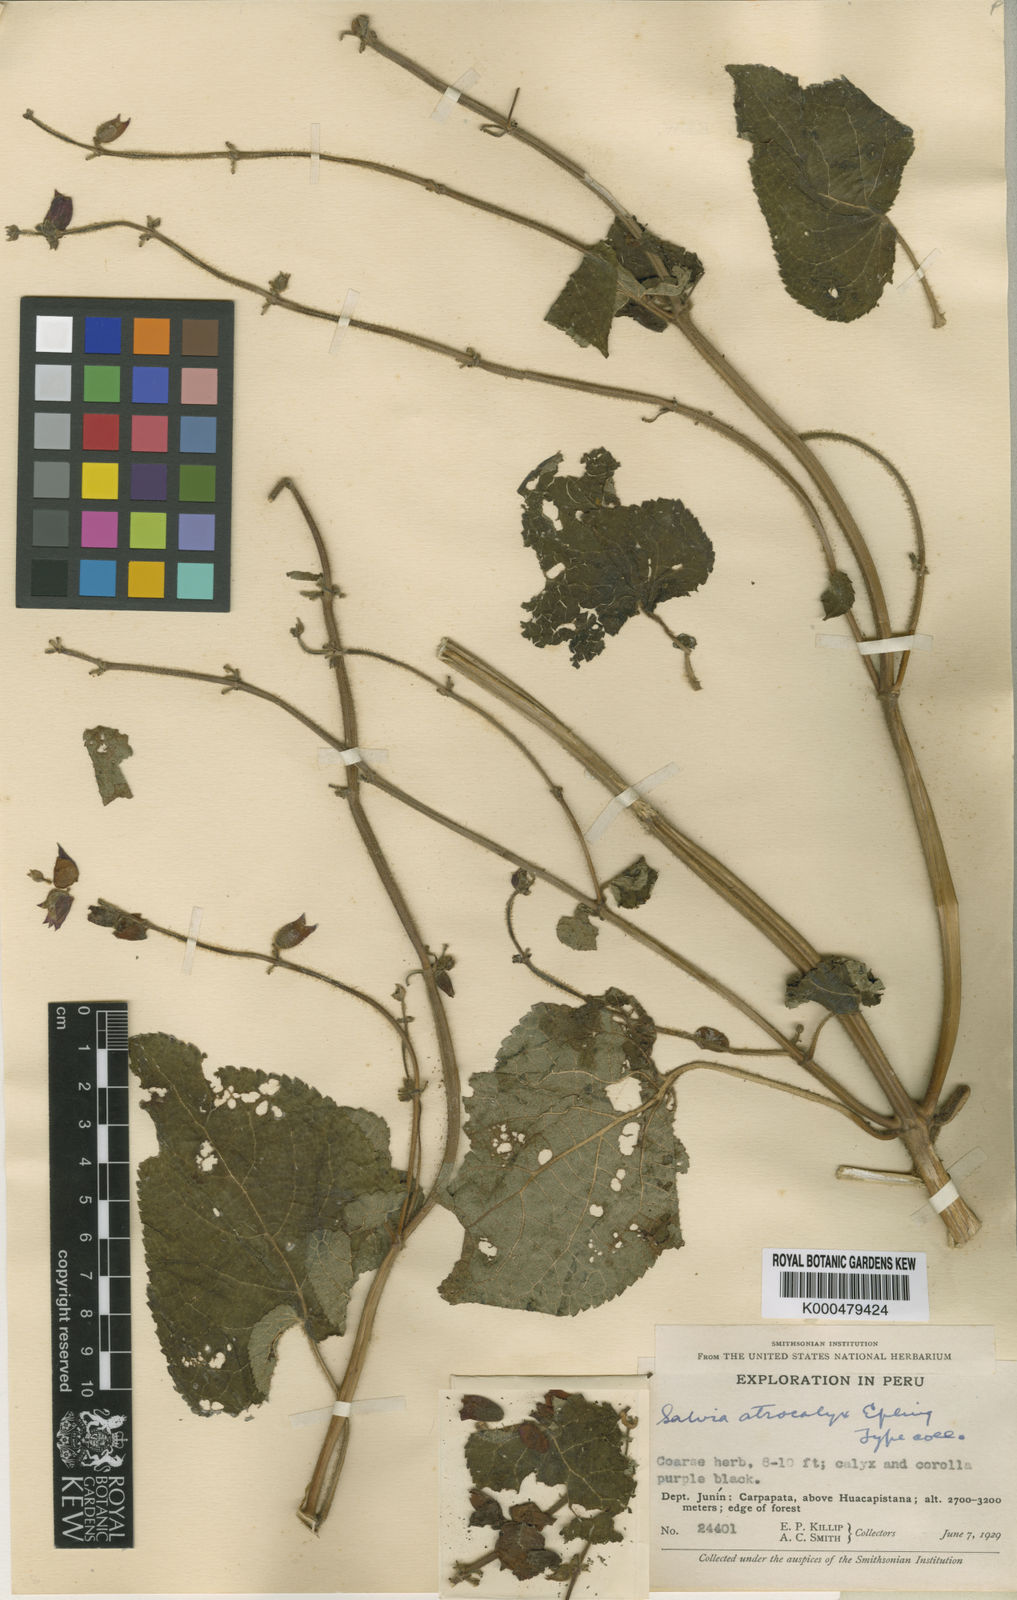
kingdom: Plantae
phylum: Tracheophyta
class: Magnoliopsida
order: Lamiales
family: Lamiaceae
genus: Salvia
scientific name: Salvia atrocalyx
